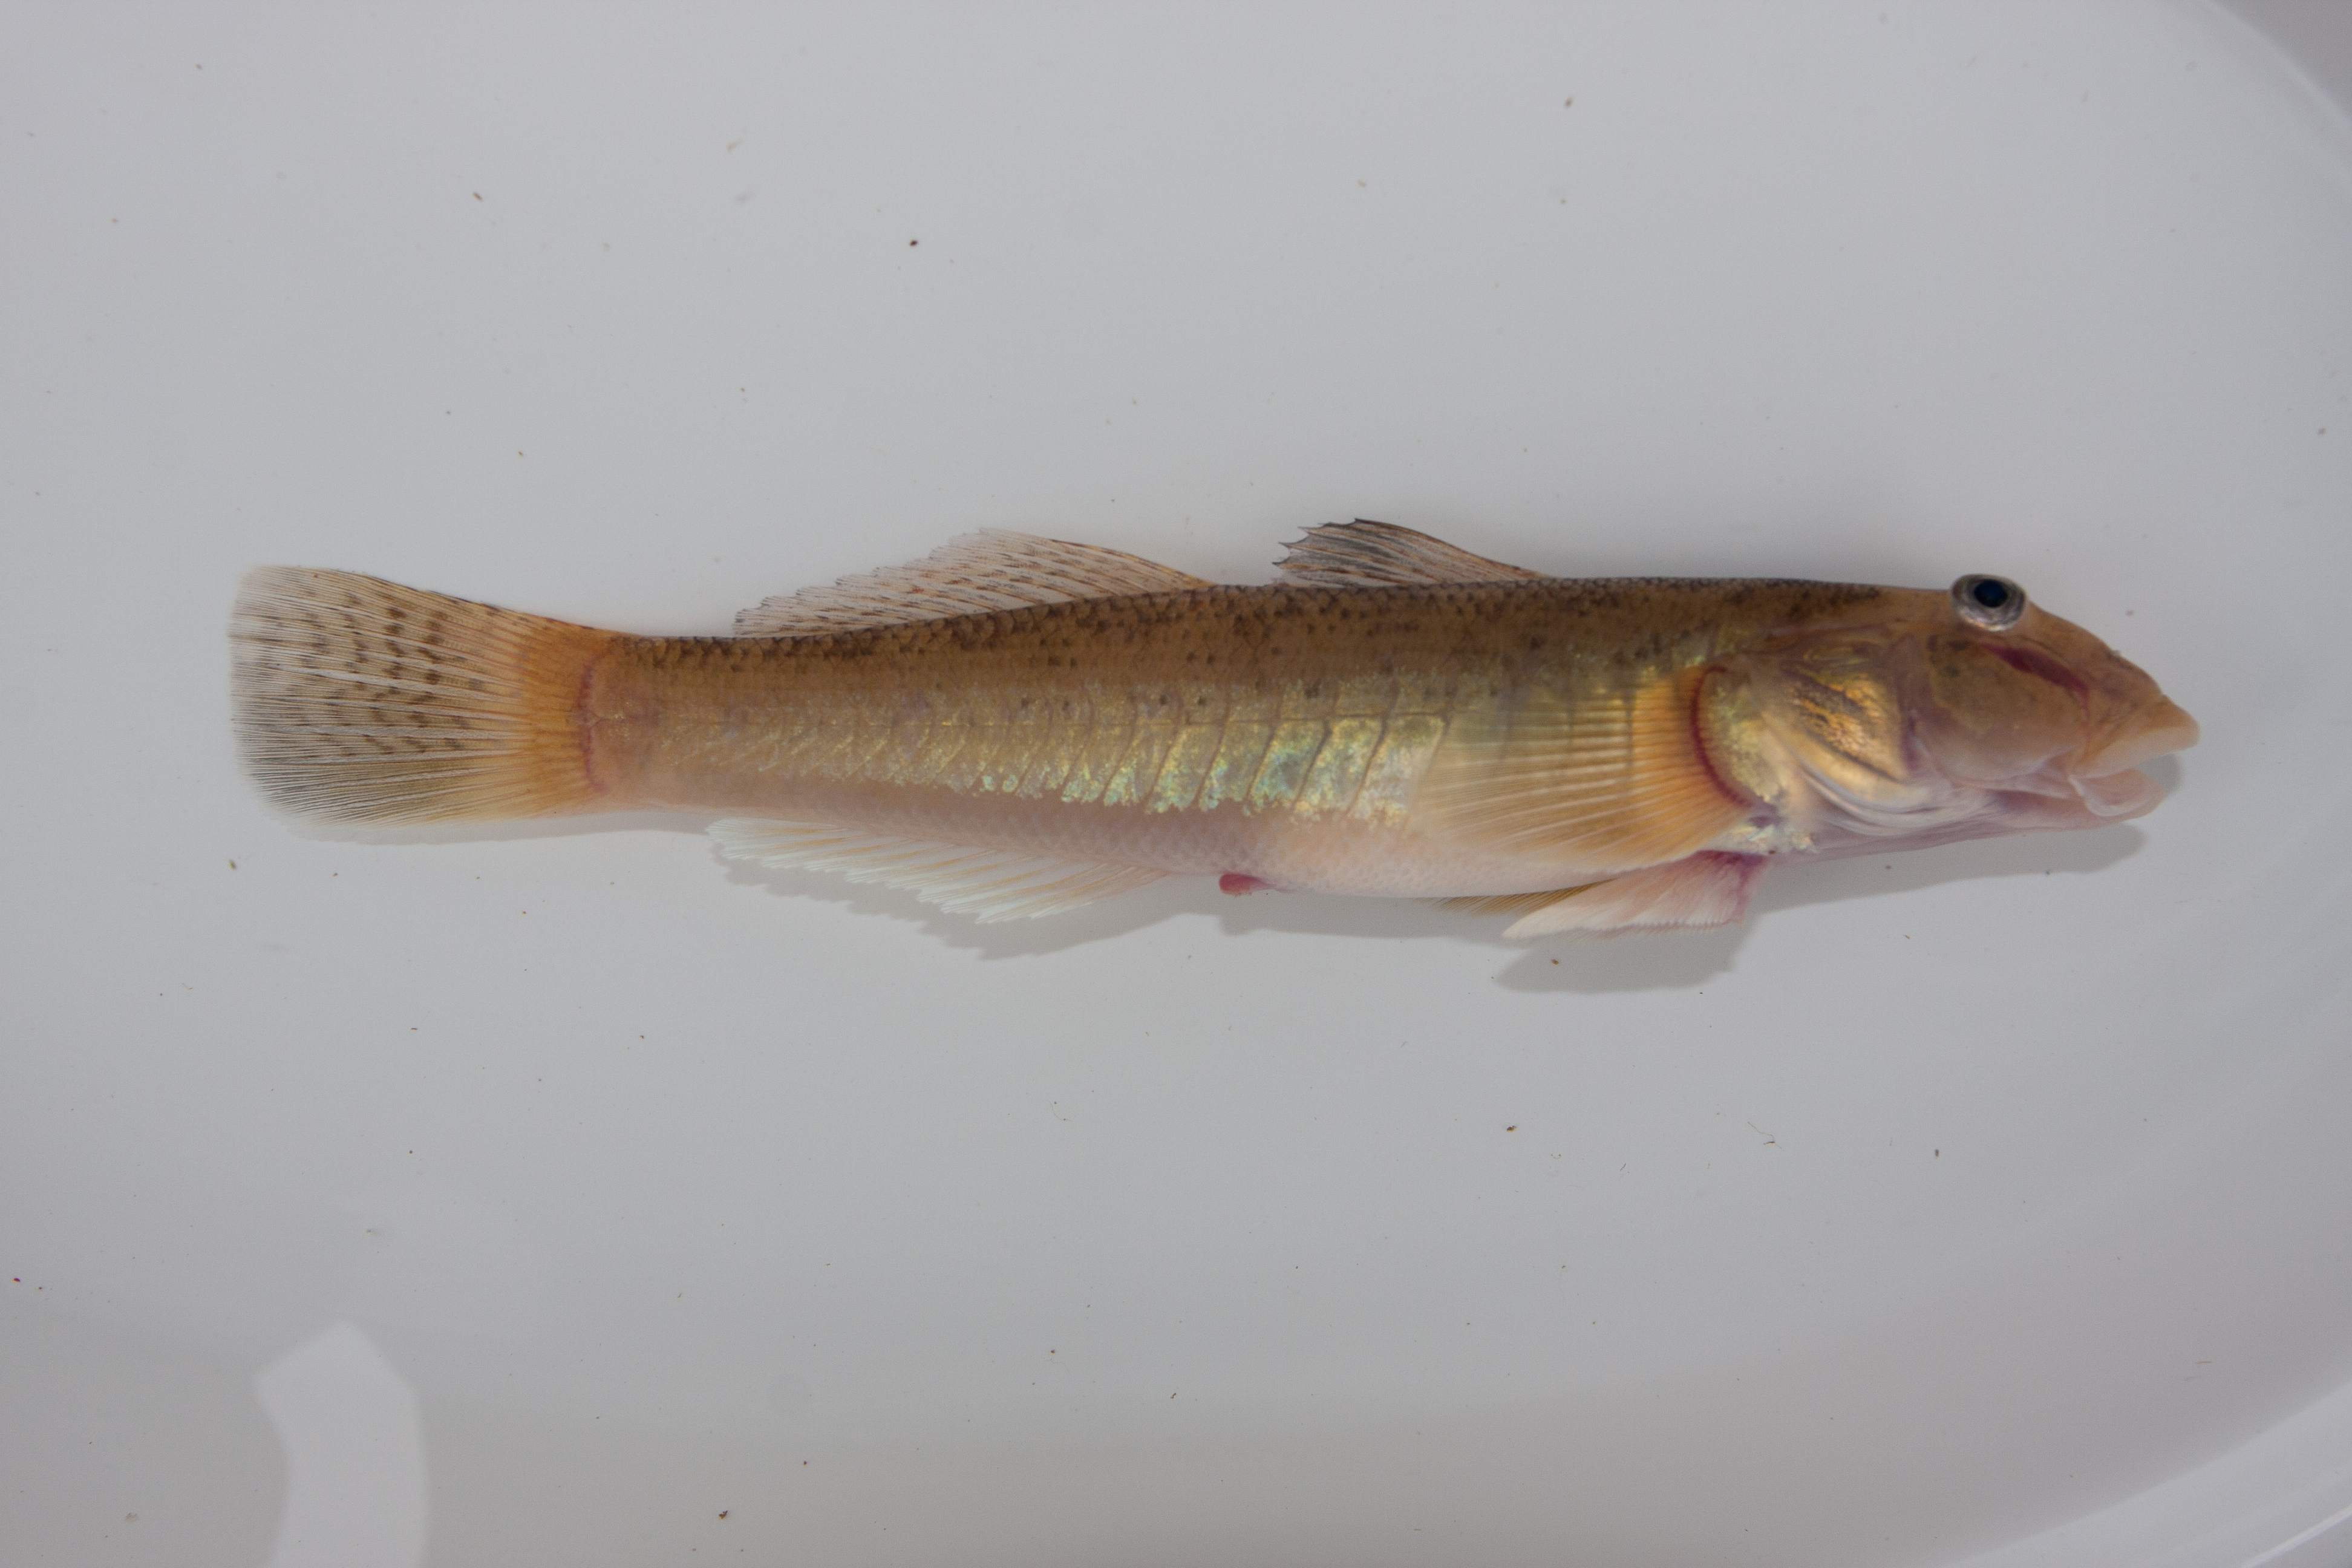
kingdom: Animalia
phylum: Chordata
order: Perciformes
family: Gobiidae
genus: Awaous
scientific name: Awaous aeneofuscus
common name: Freshwater goby
